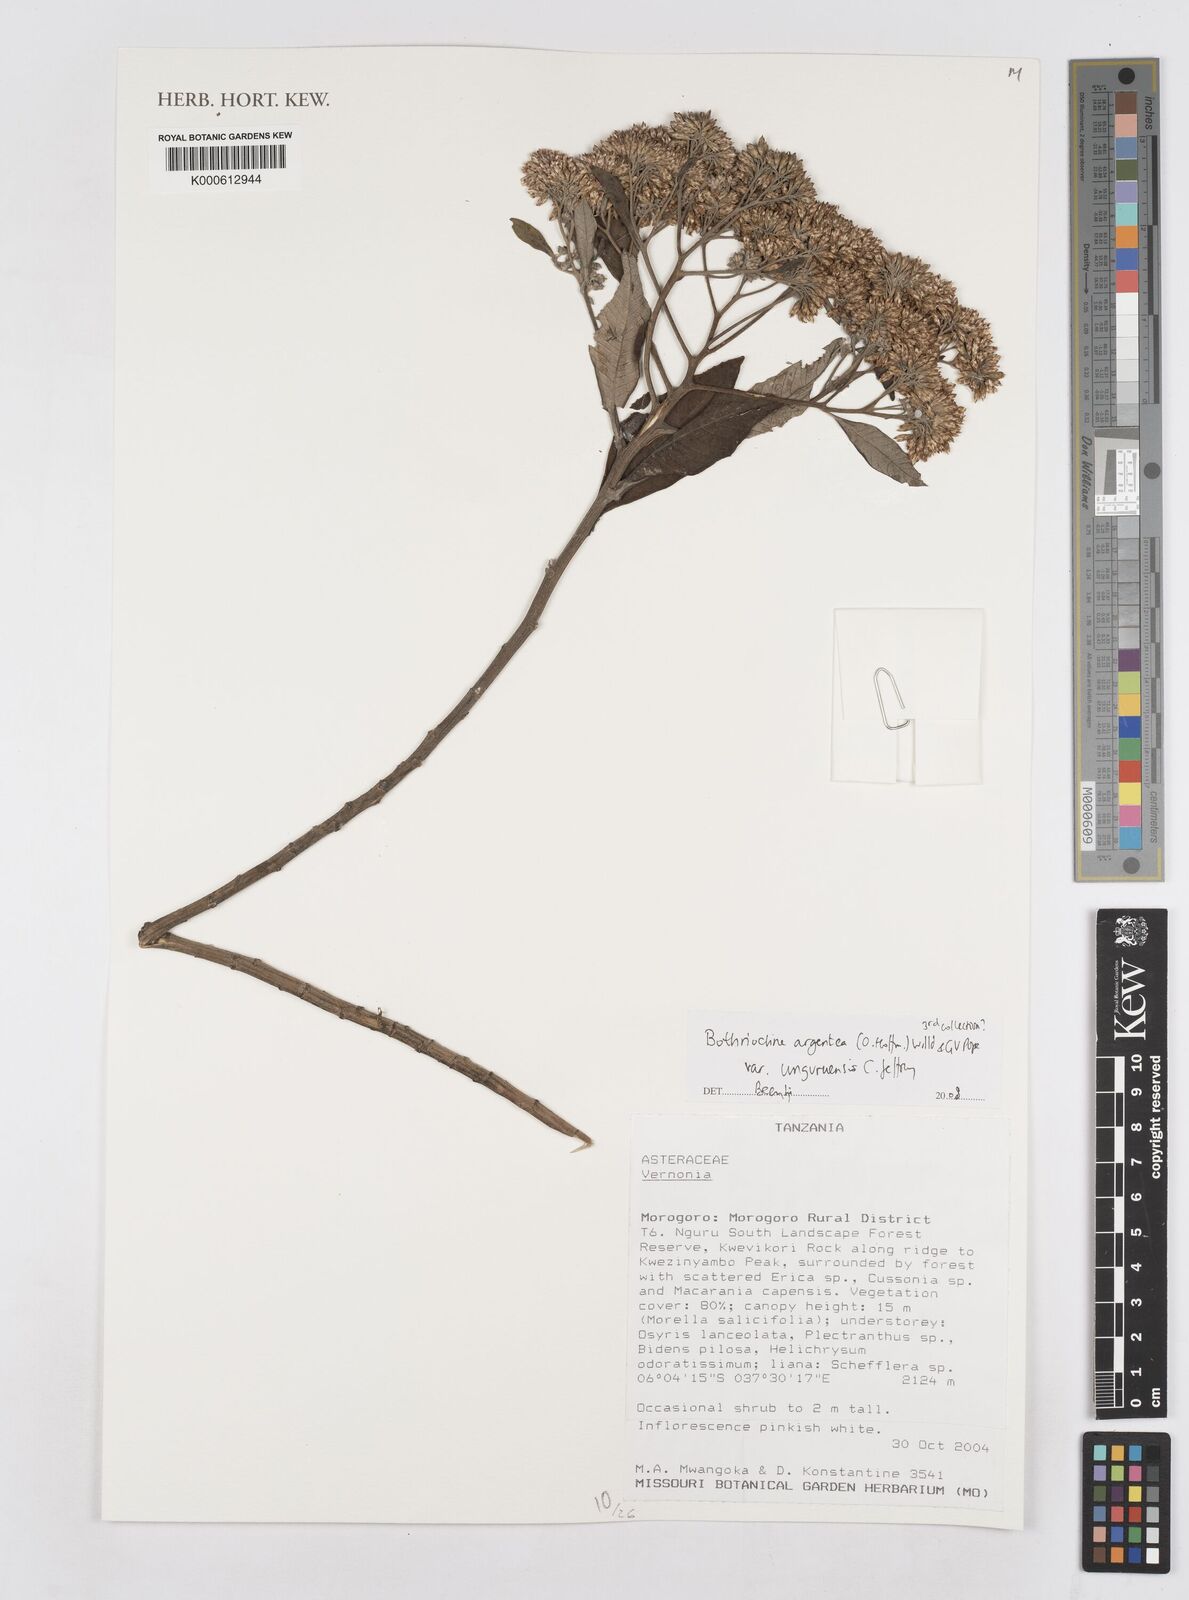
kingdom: Plantae
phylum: Tracheophyta
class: Magnoliopsida
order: Asterales
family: Asteraceae
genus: Bothriocline
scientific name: Bothriocline argentea
